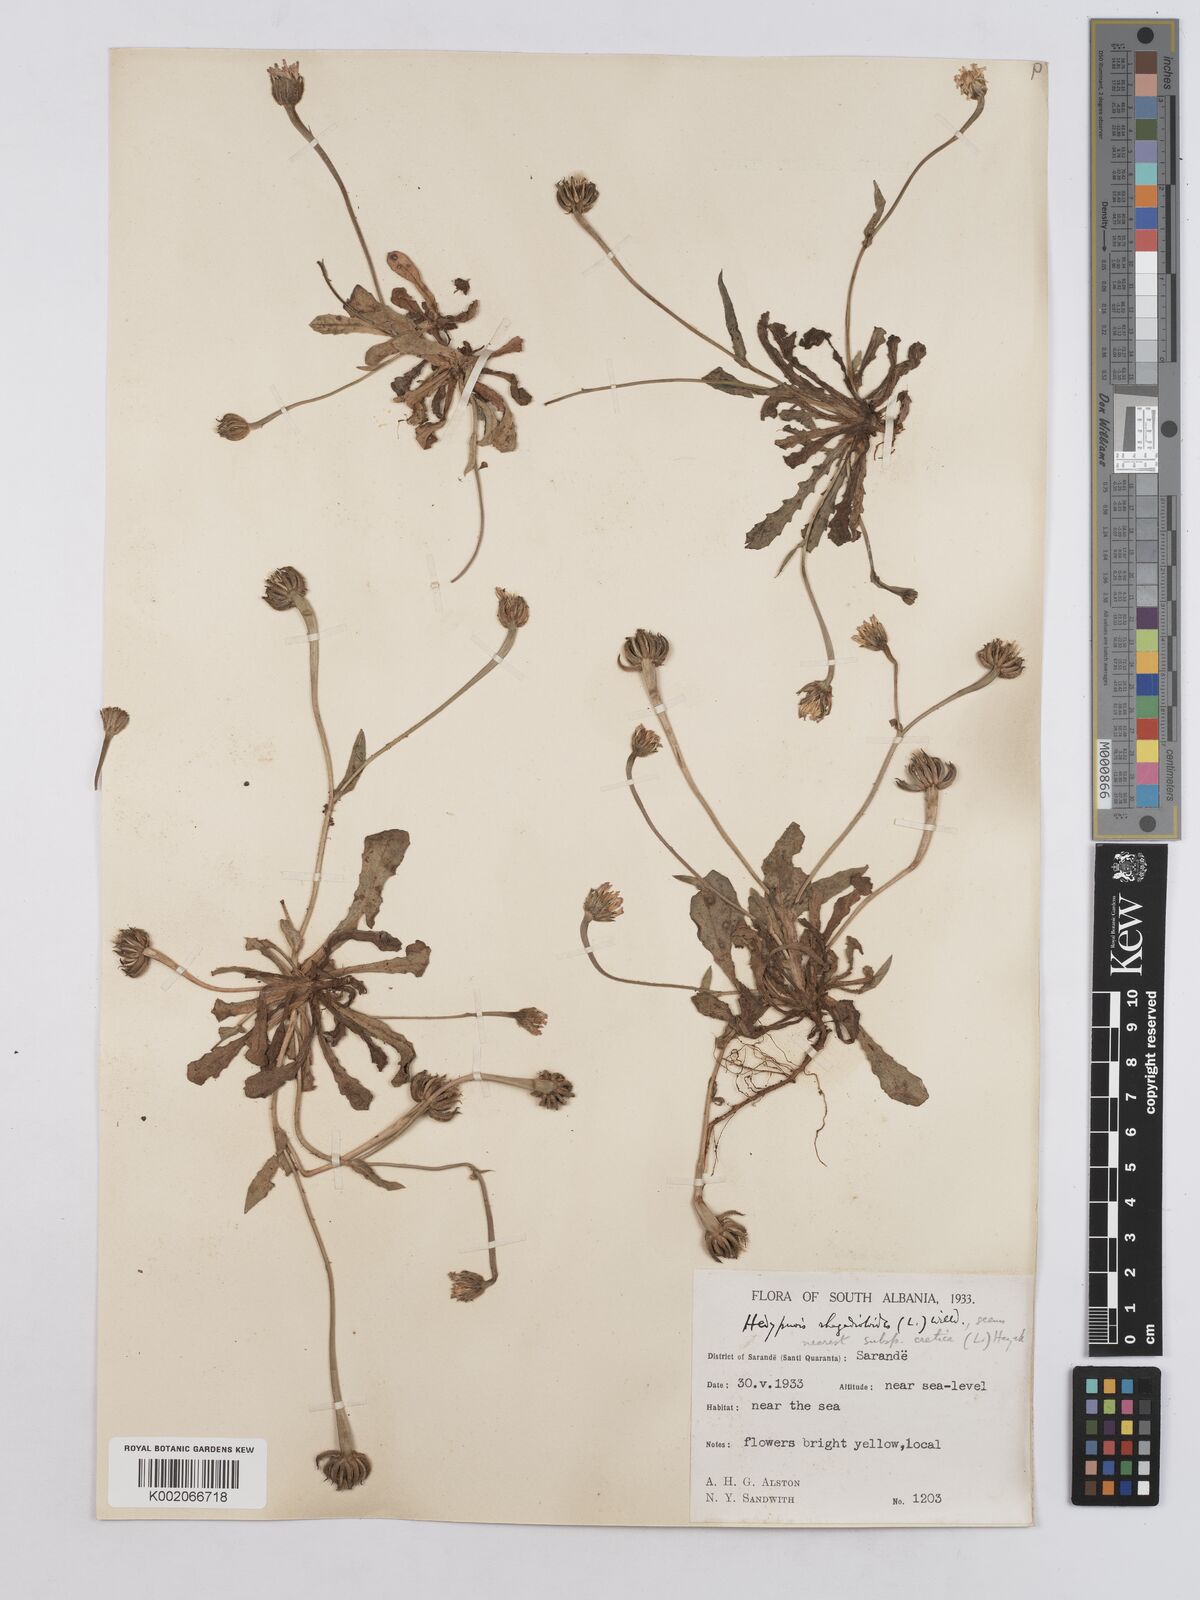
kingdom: Plantae
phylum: Tracheophyta
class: Magnoliopsida
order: Asterales
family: Asteraceae
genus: Hedypnois
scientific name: Hedypnois cretica
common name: Scaly hawkbit
